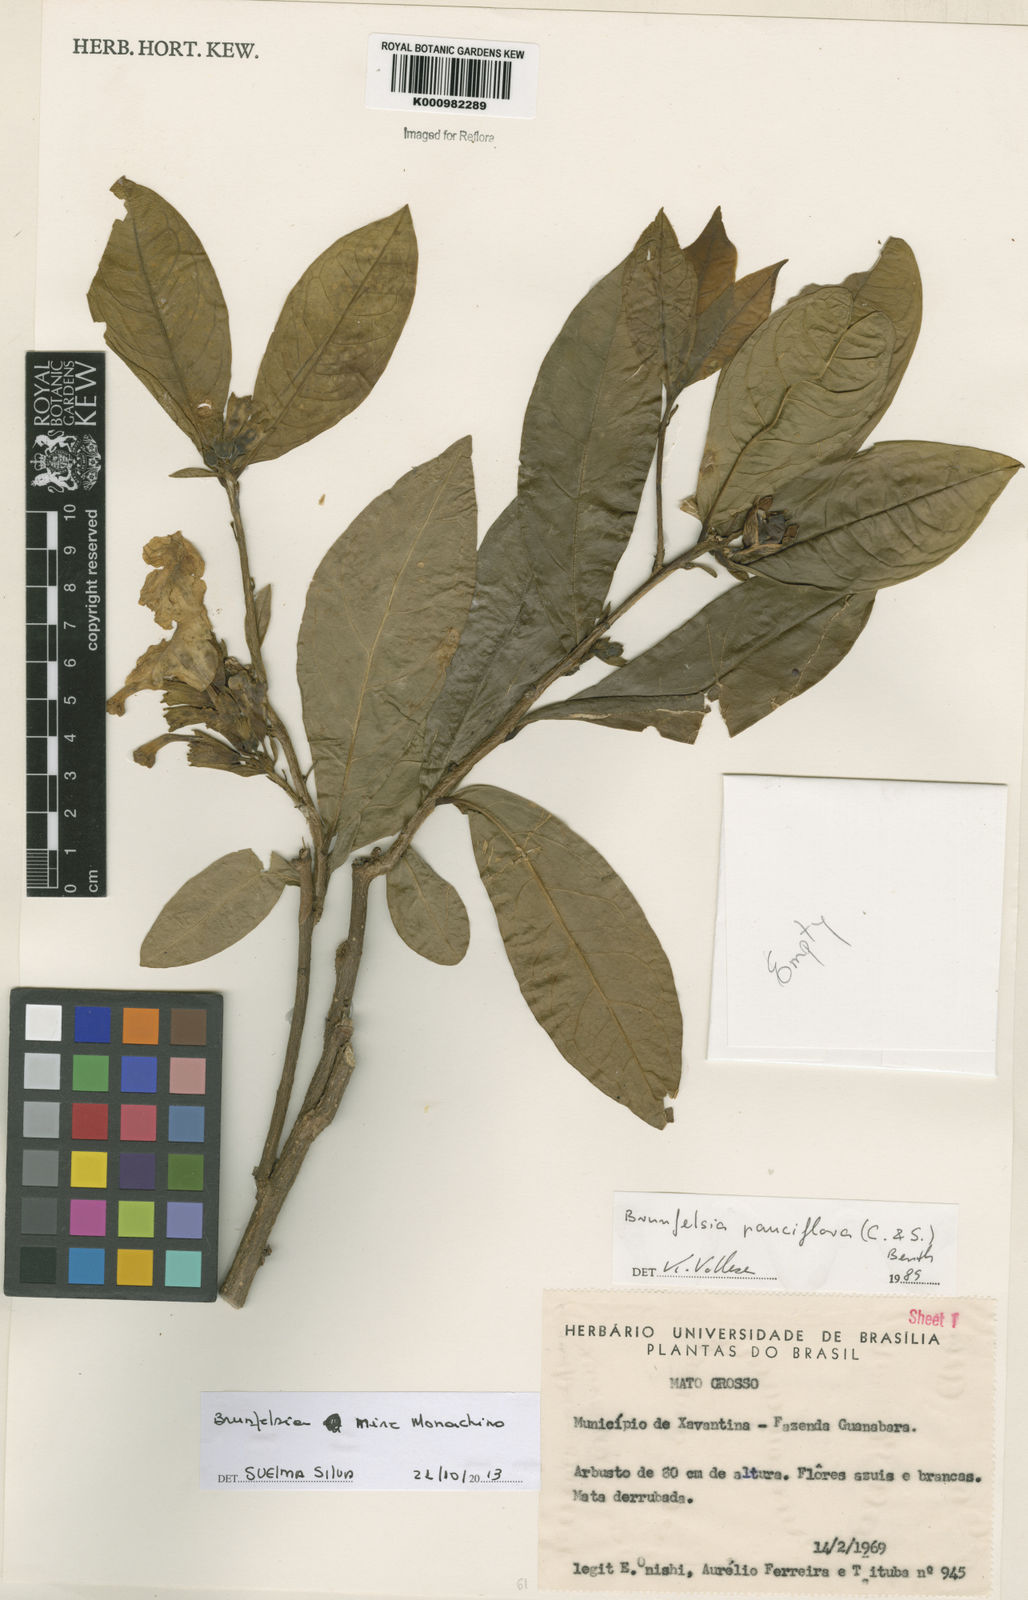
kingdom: Plantae
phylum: Tracheophyta
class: Magnoliopsida
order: Solanales
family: Solanaceae
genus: Brunfelsia
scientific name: Brunfelsia mire
